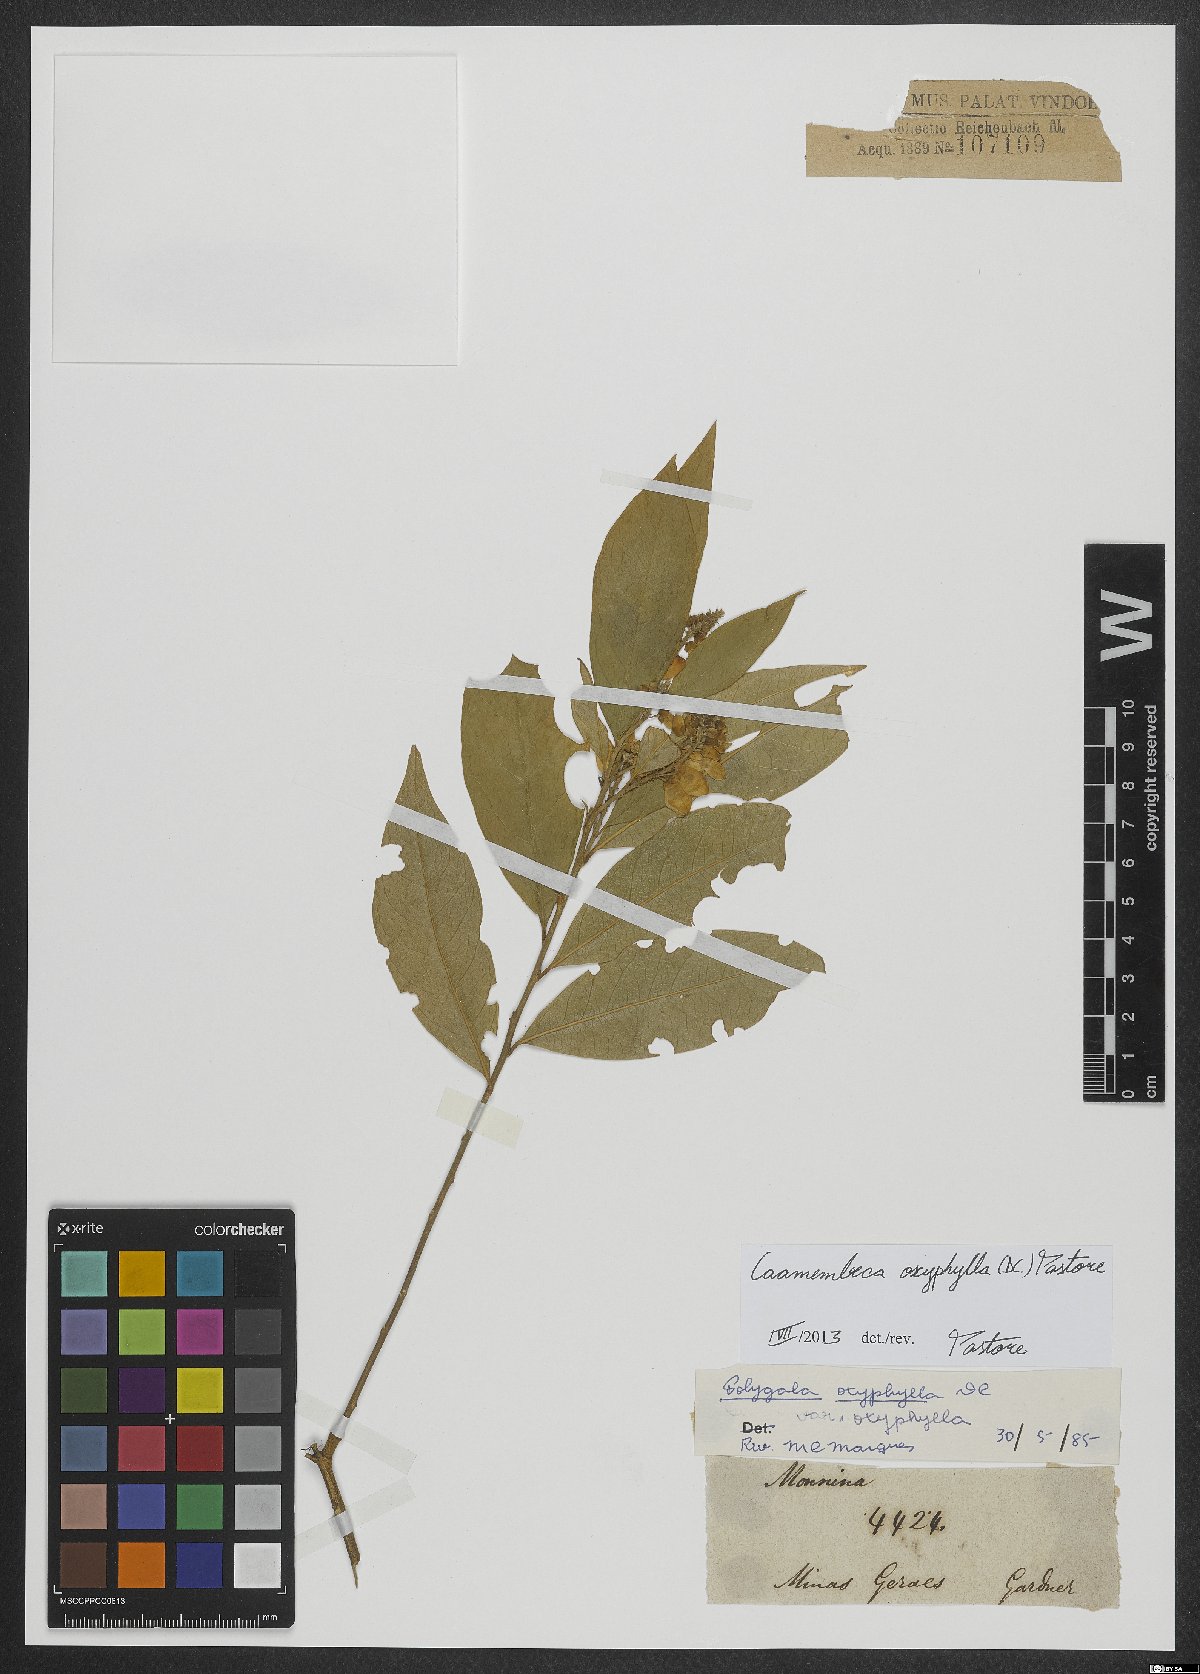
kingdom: Plantae
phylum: Tracheophyta
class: Magnoliopsida
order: Fabales
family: Polygalaceae
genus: Caamembeca
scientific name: Caamembeca oxyphylla
